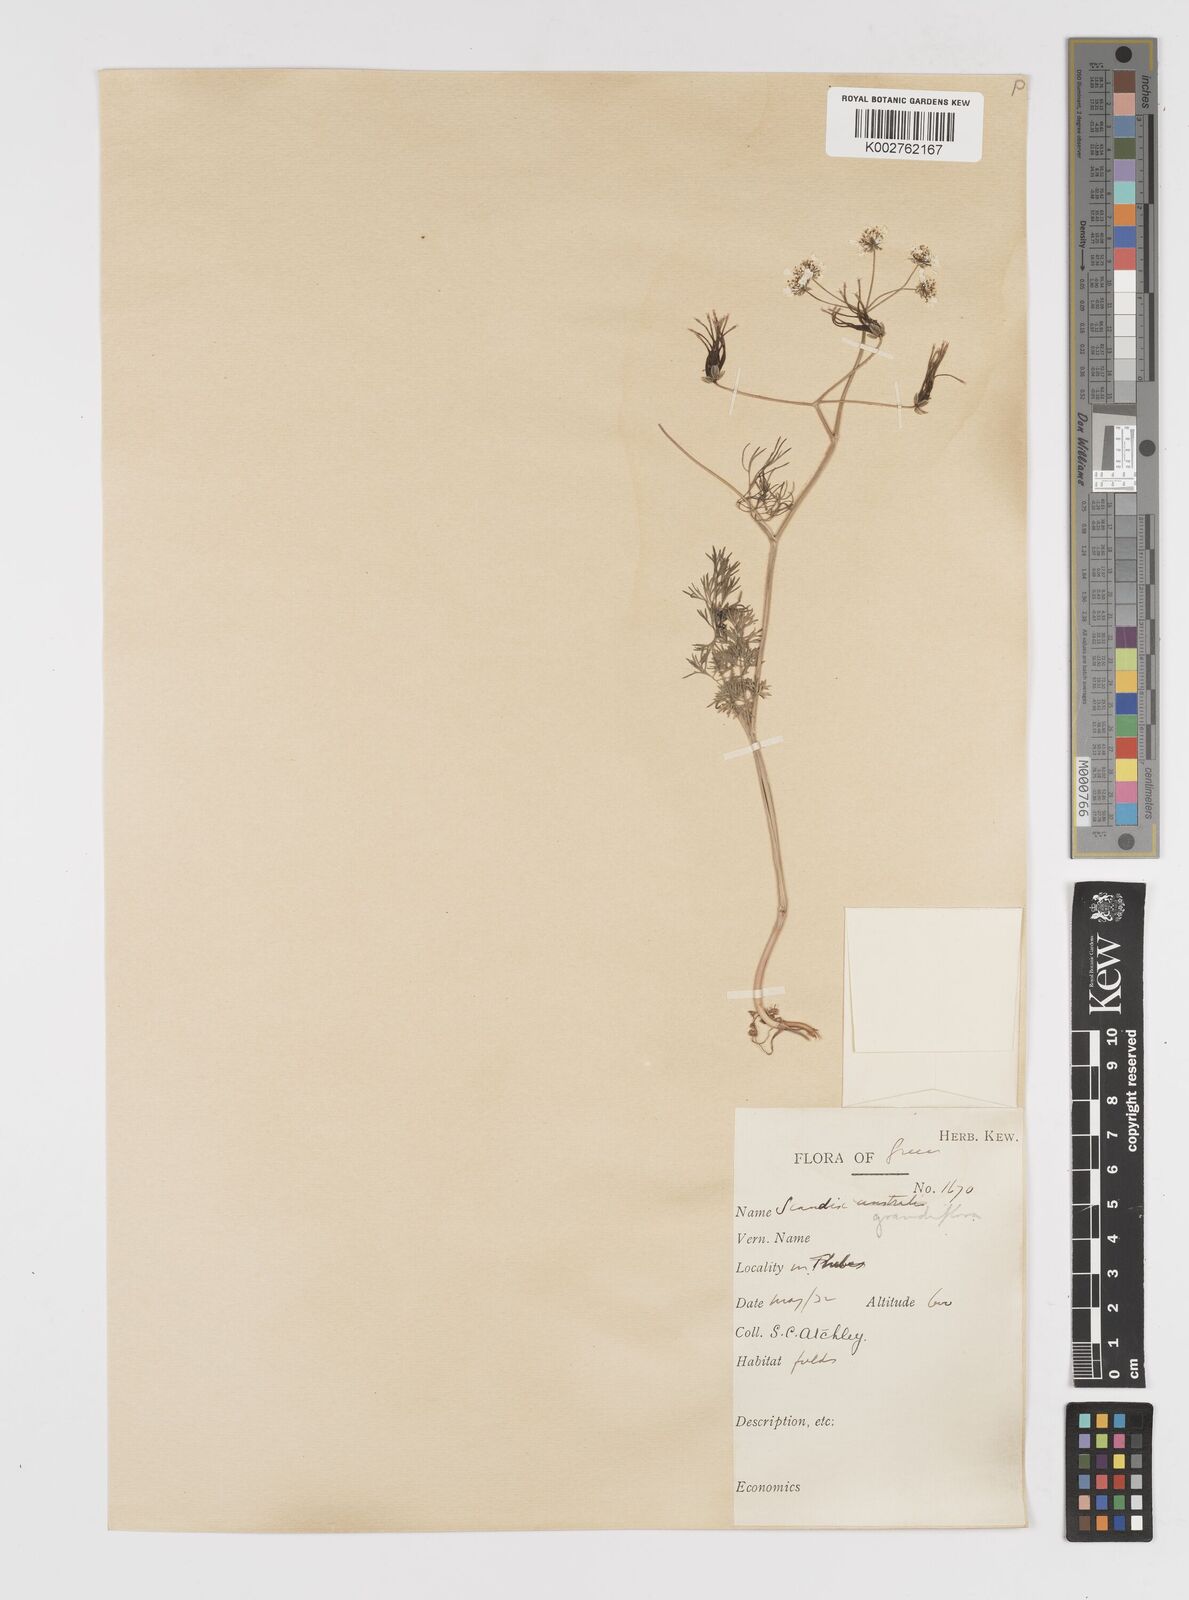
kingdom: Plantae
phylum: Tracheophyta
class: Magnoliopsida
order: Apiales
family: Apiaceae
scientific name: Apiaceae
